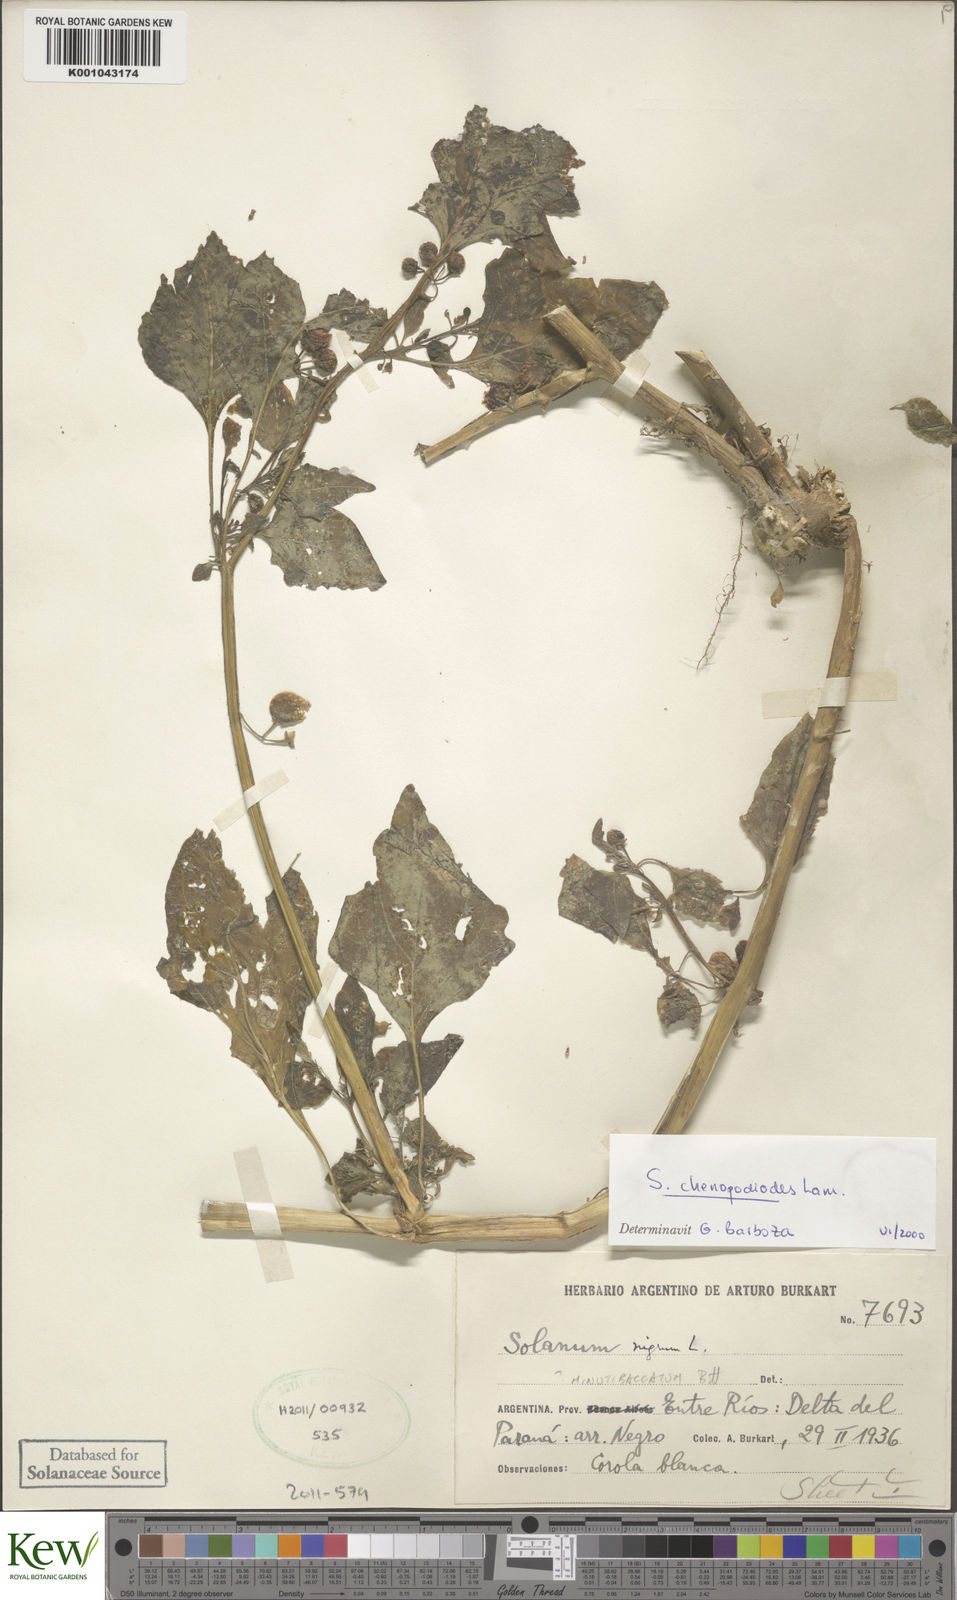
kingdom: Plantae
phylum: Tracheophyta
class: Magnoliopsida
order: Solanales
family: Solanaceae
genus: Solanum
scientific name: Solanum chenopodioides
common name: Tall nightshade
